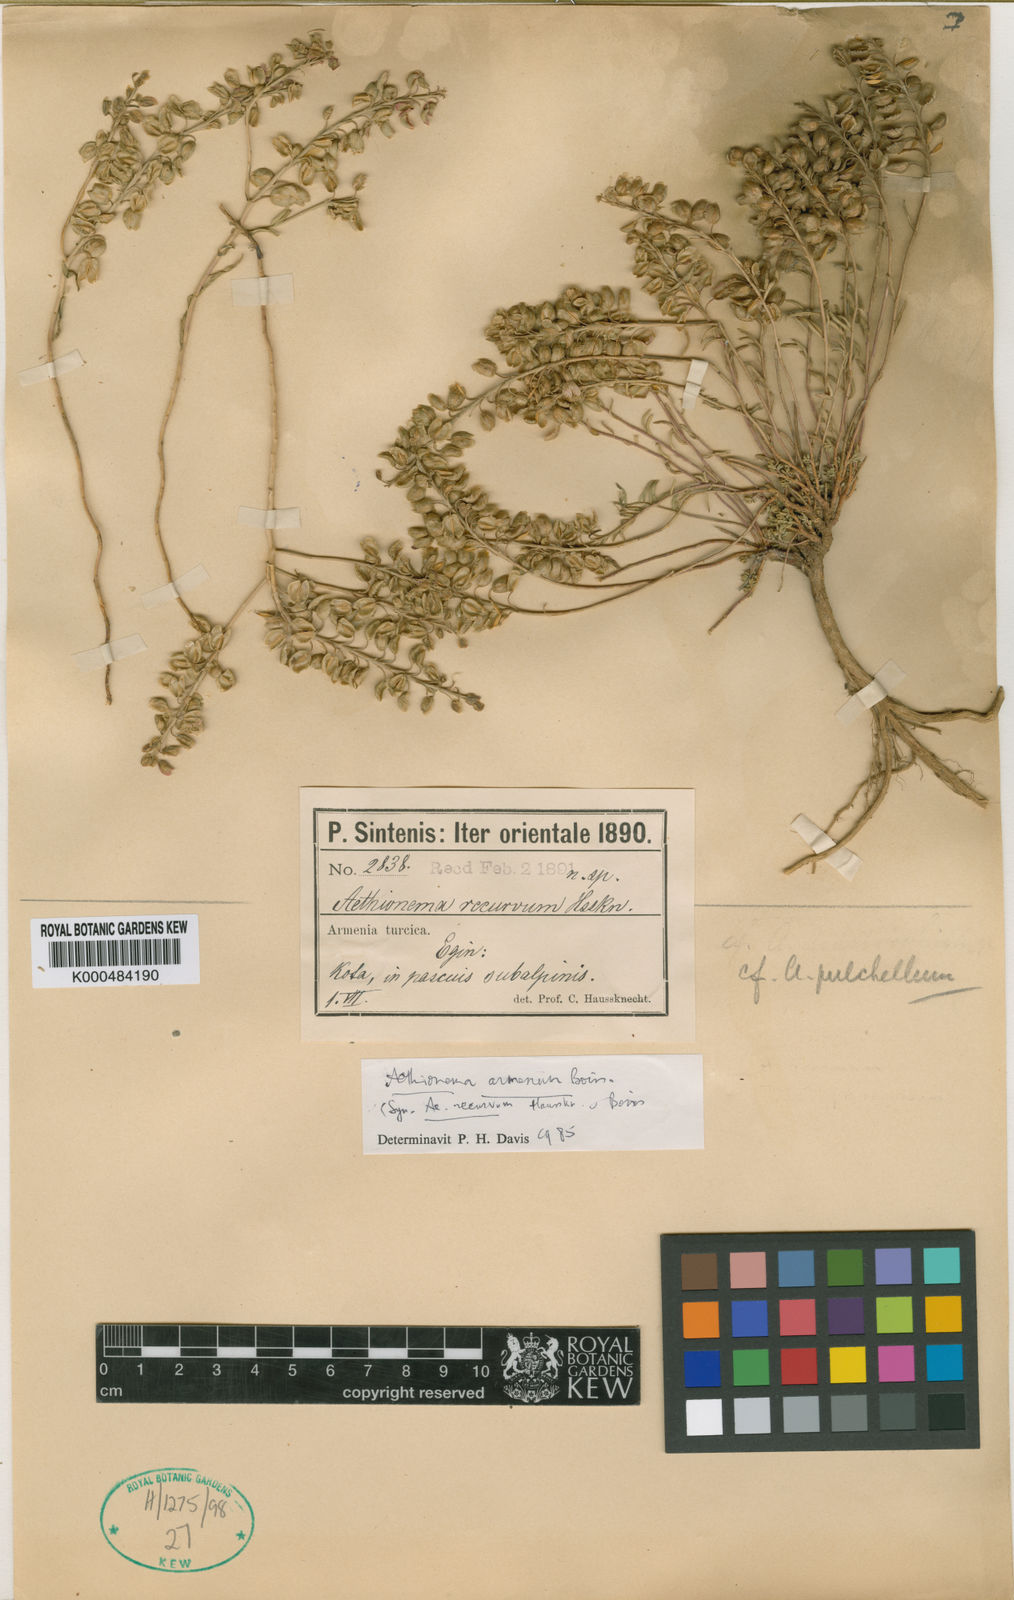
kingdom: Plantae
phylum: Tracheophyta
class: Magnoliopsida
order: Brassicales
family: Brassicaceae
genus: Aethionema
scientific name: Aethionema armenum
